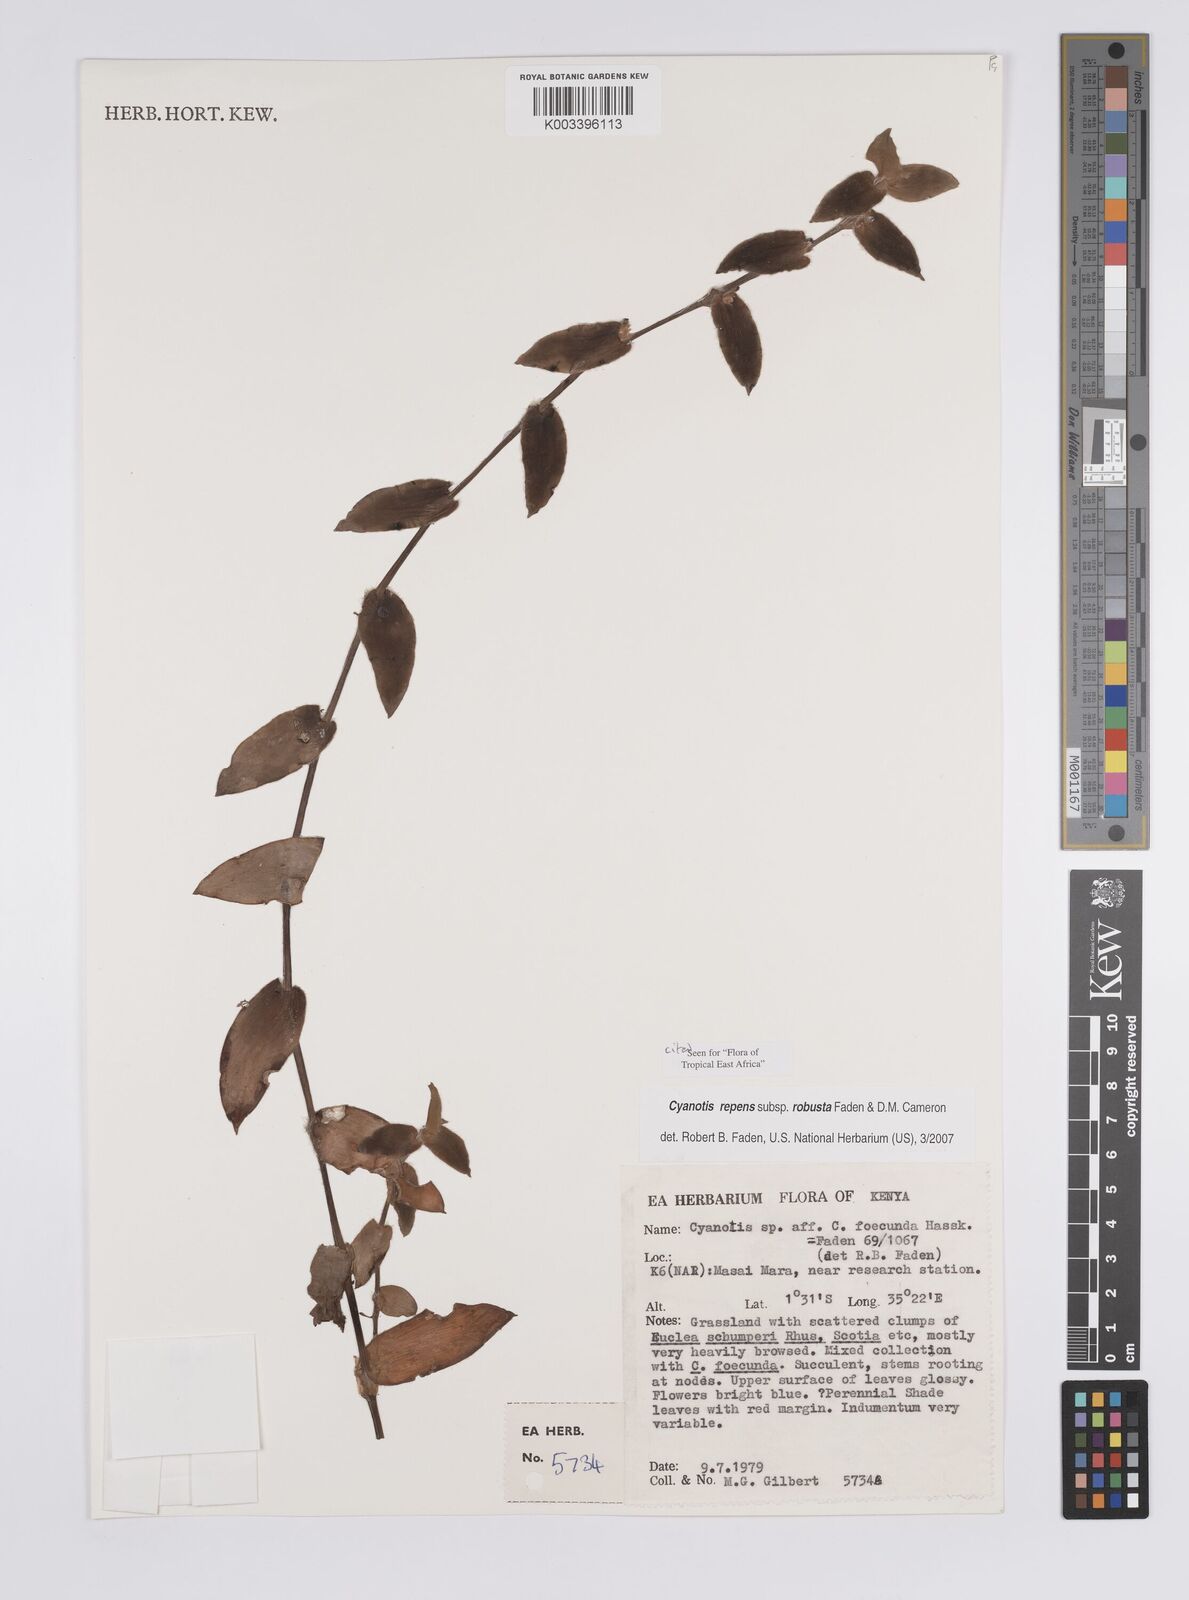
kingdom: Plantae
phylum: Tracheophyta
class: Liliopsida
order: Commelinales
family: Commelinaceae
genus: Cyanotis
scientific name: Cyanotis repens
